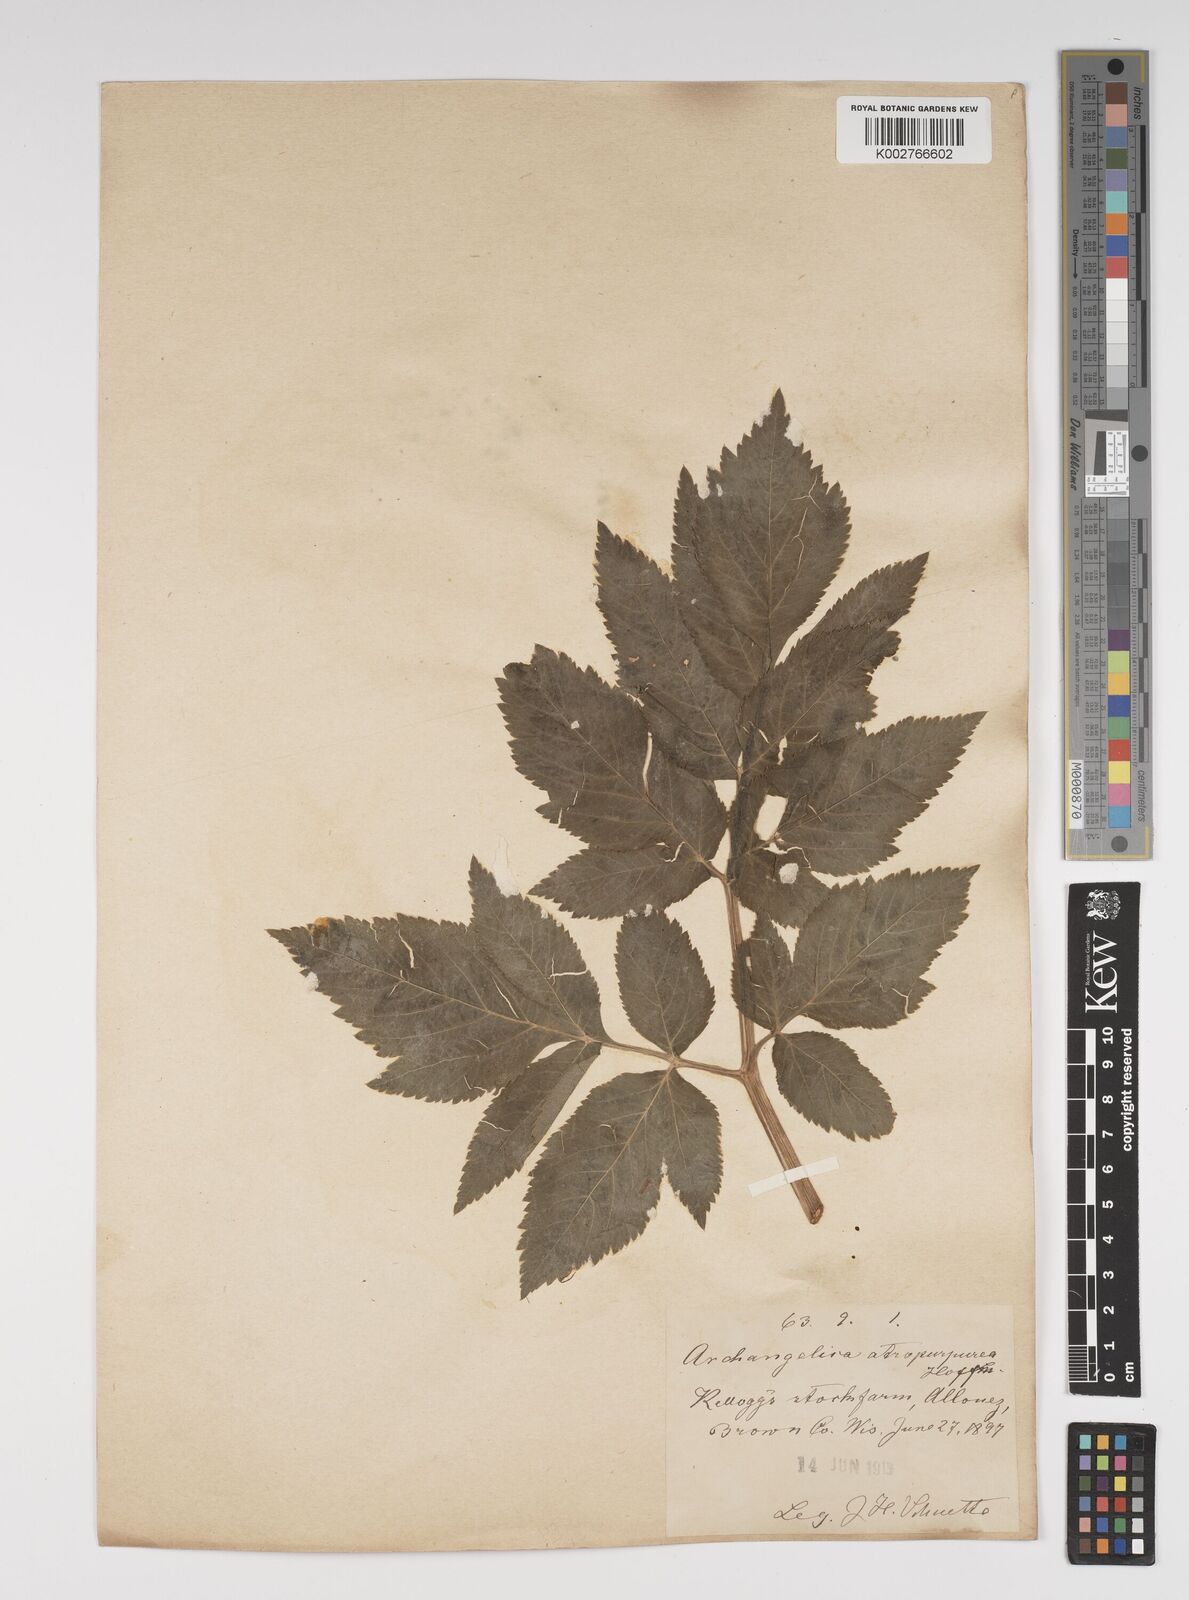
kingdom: Plantae
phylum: Tracheophyta
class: Magnoliopsida
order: Apiales
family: Apiaceae
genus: Angelica
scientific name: Angelica atropurpurea
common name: Great angelica
